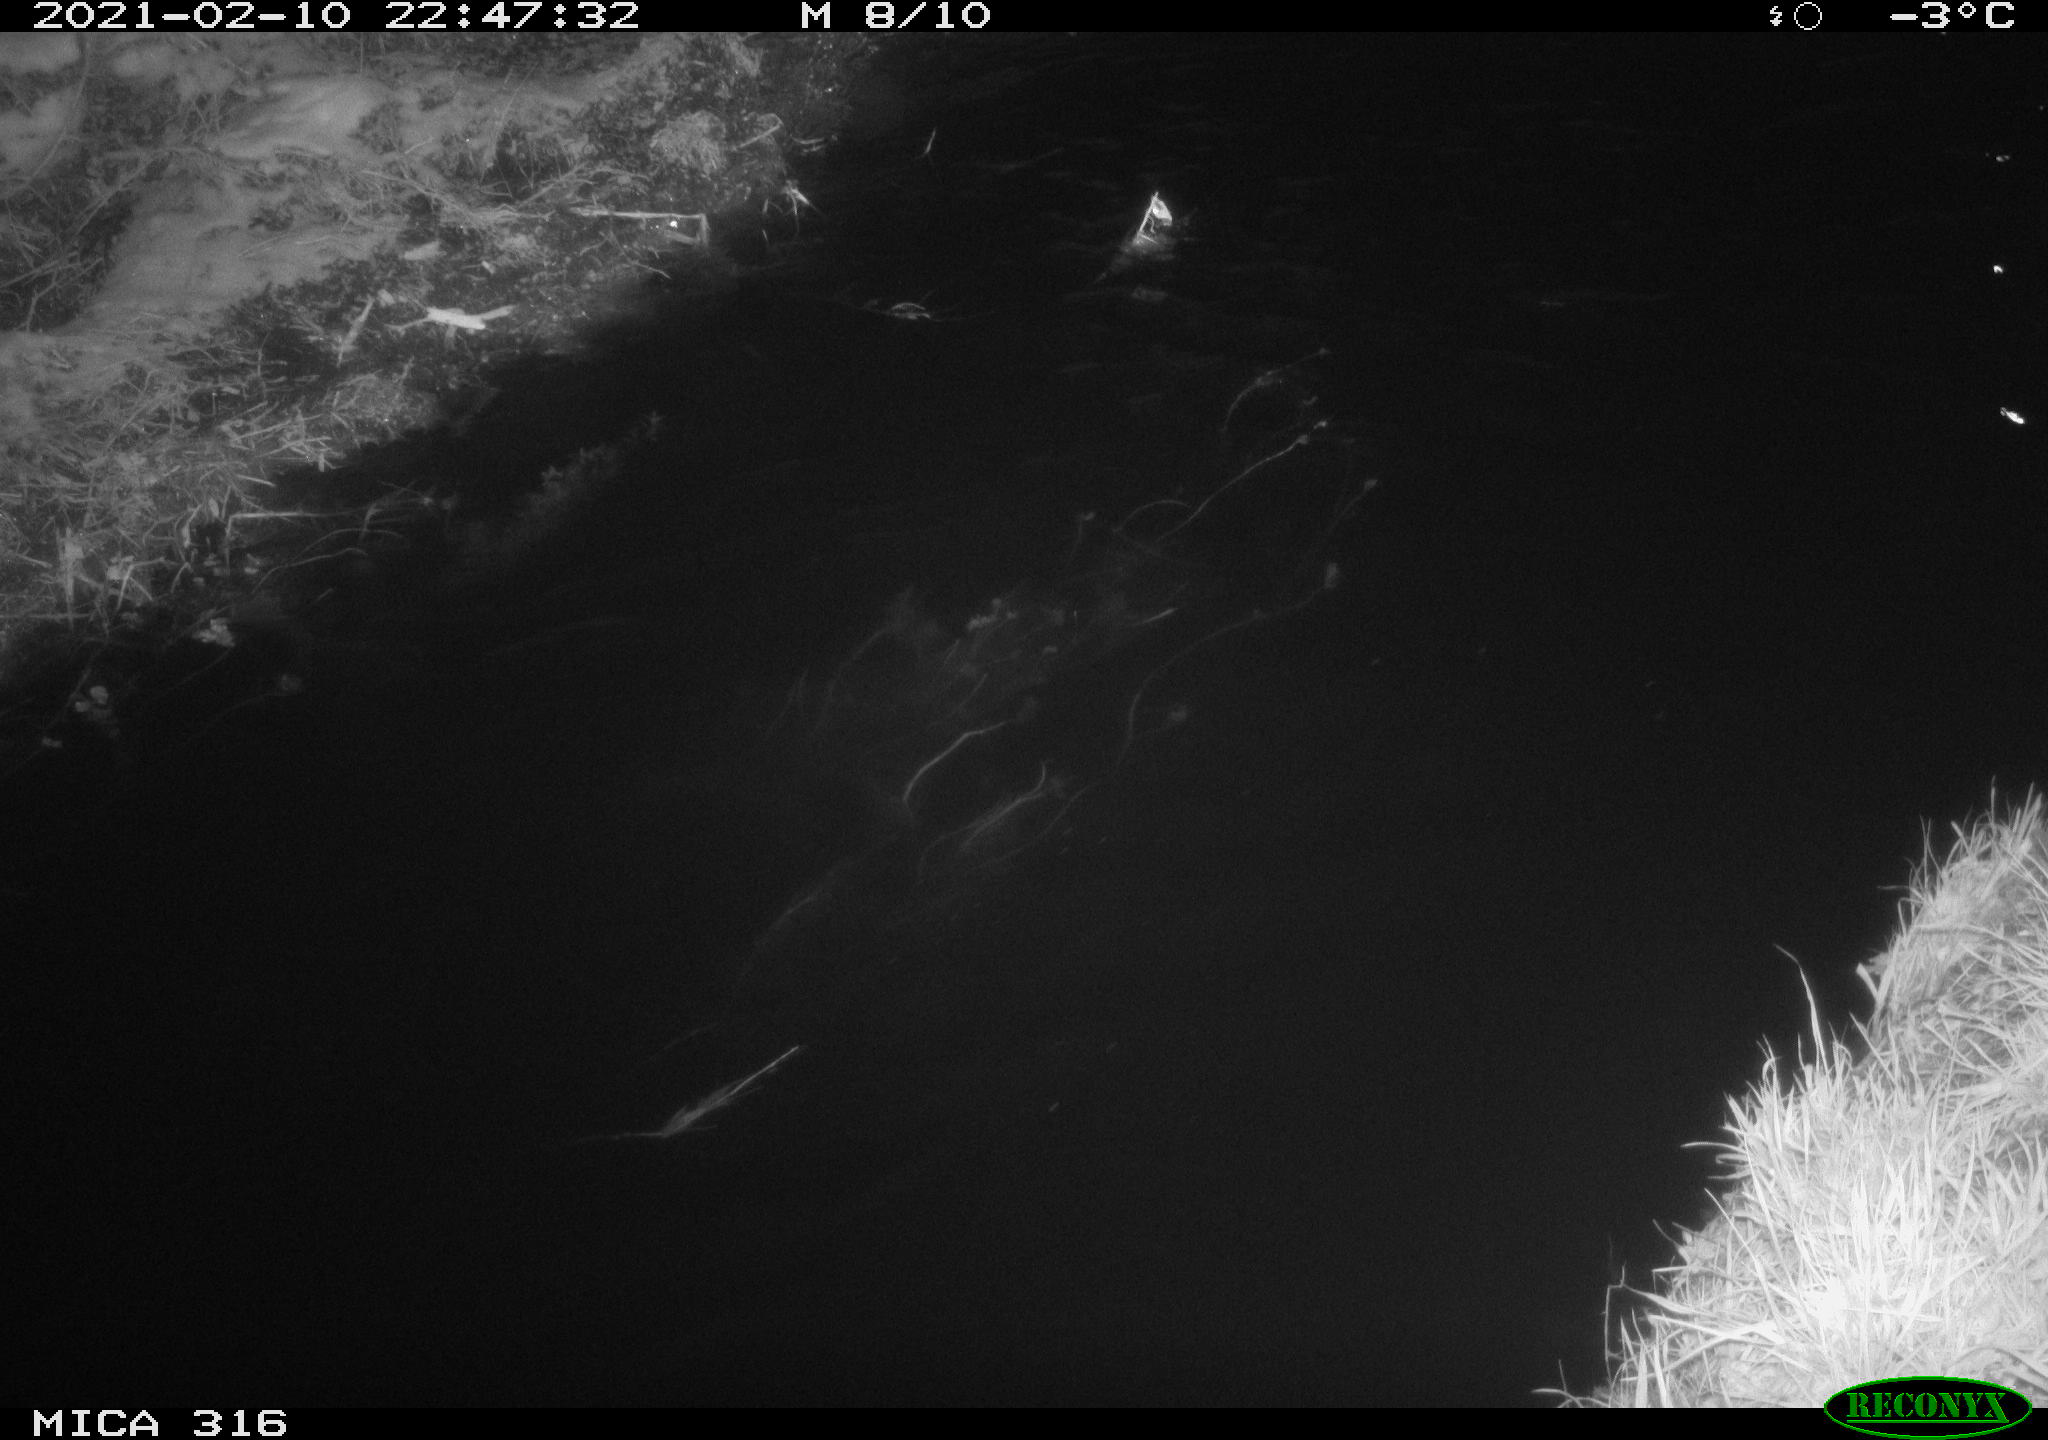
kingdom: Animalia
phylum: Chordata
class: Aves
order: Anseriformes
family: Anatidae
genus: Anas
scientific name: Anas platyrhynchos
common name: Mallard
